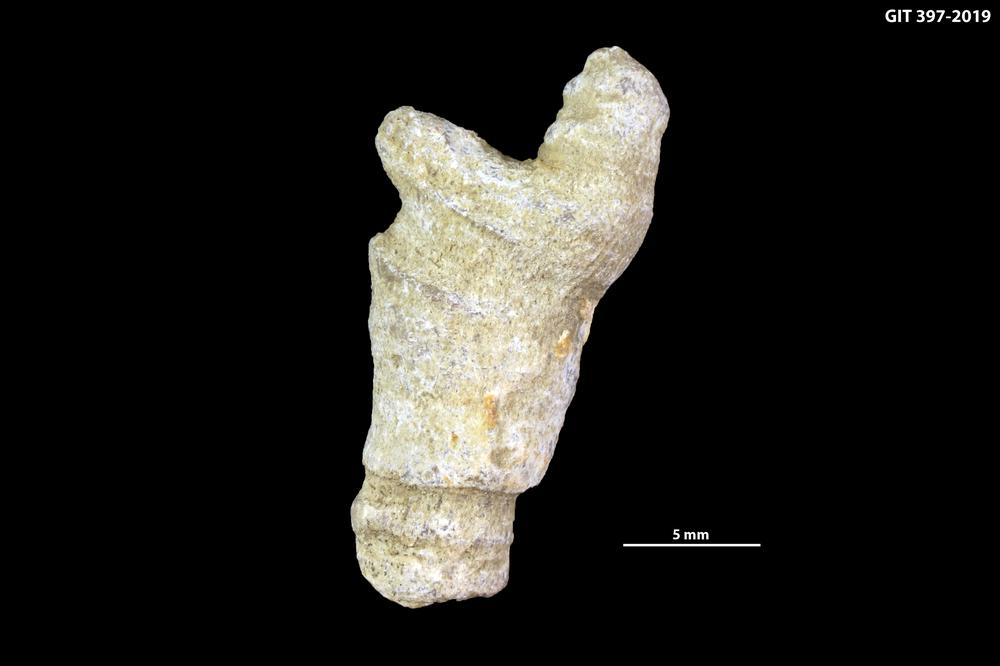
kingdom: Animalia
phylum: Cnidaria
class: Anthozoa
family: Cystiphyllidae
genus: Microplasma
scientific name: Microplasma
